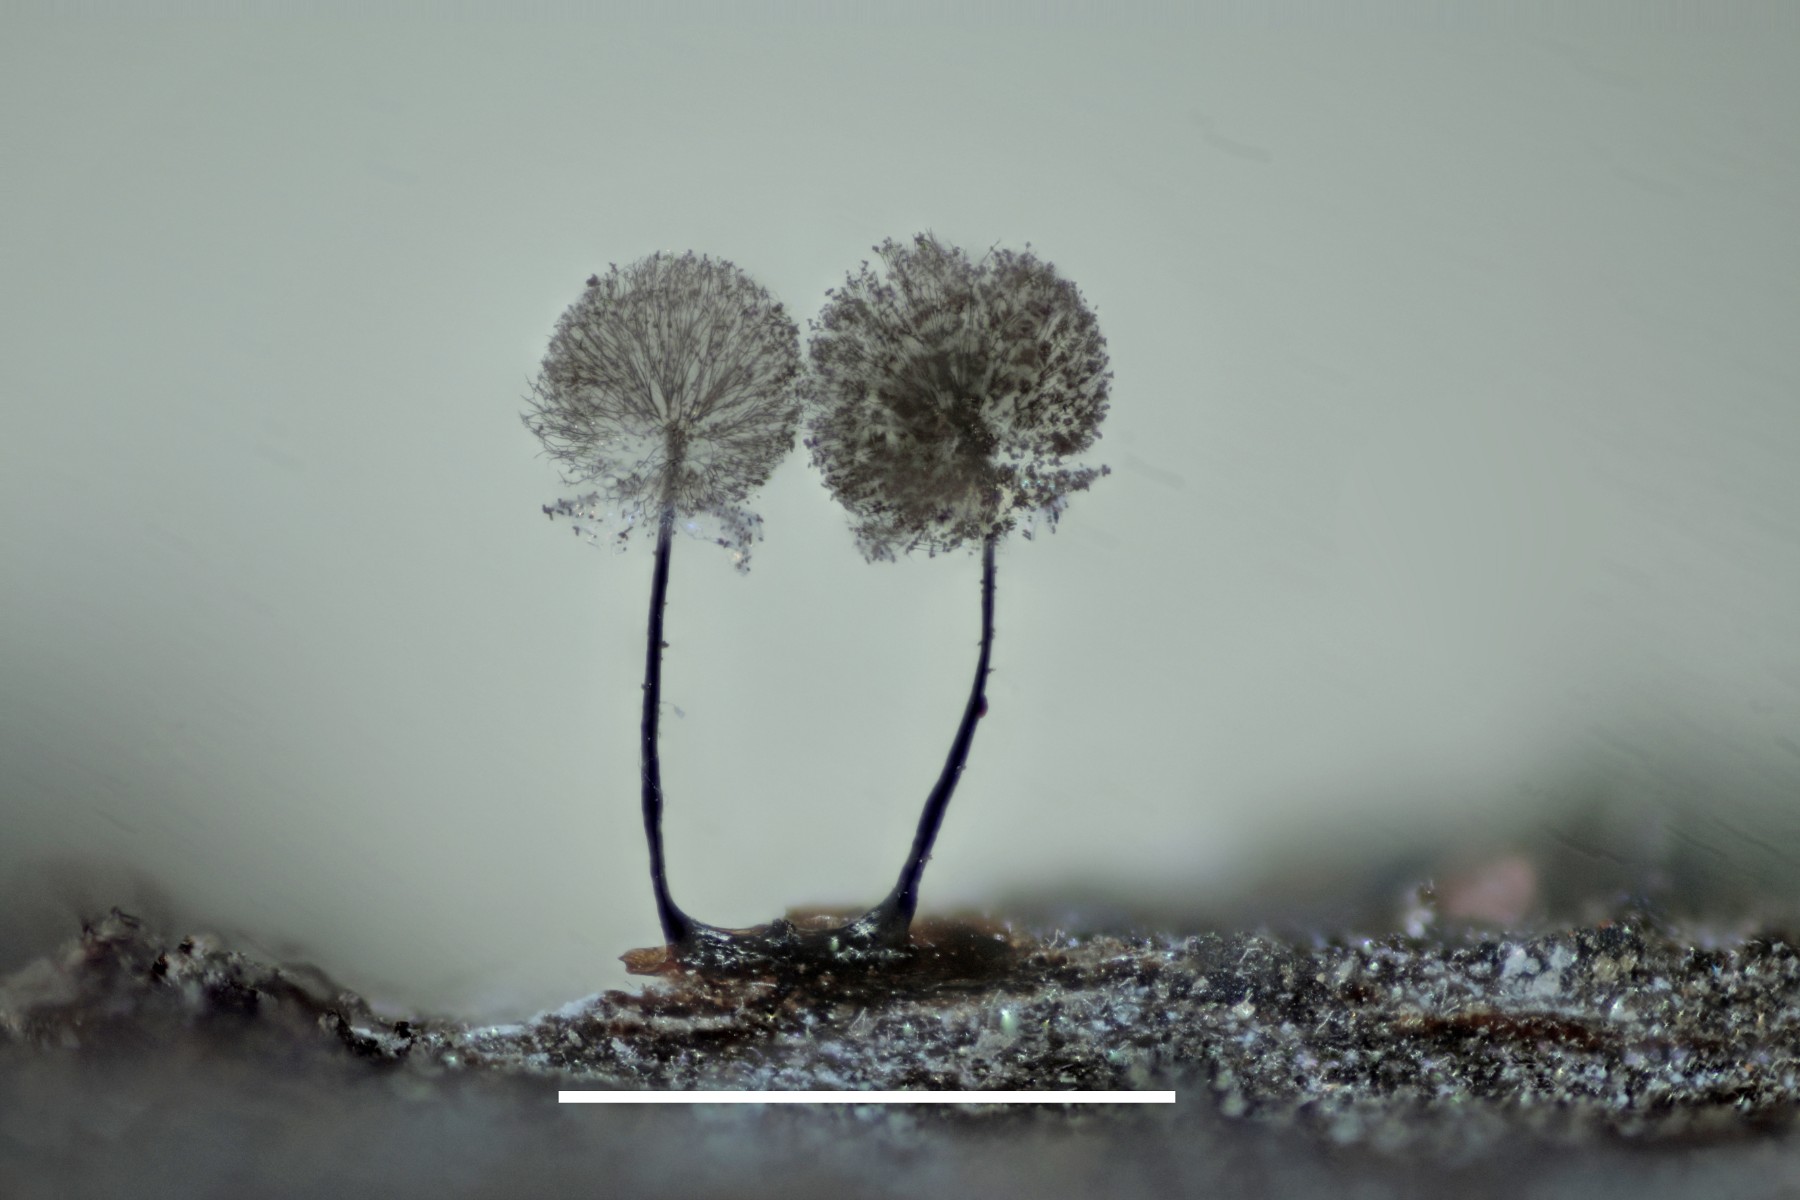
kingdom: Protozoa
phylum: Mycetozoa
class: Myxomycetes
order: Stemonitidales
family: Stemonitidaceae
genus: Lamproderma
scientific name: Lamproderma scintillans
